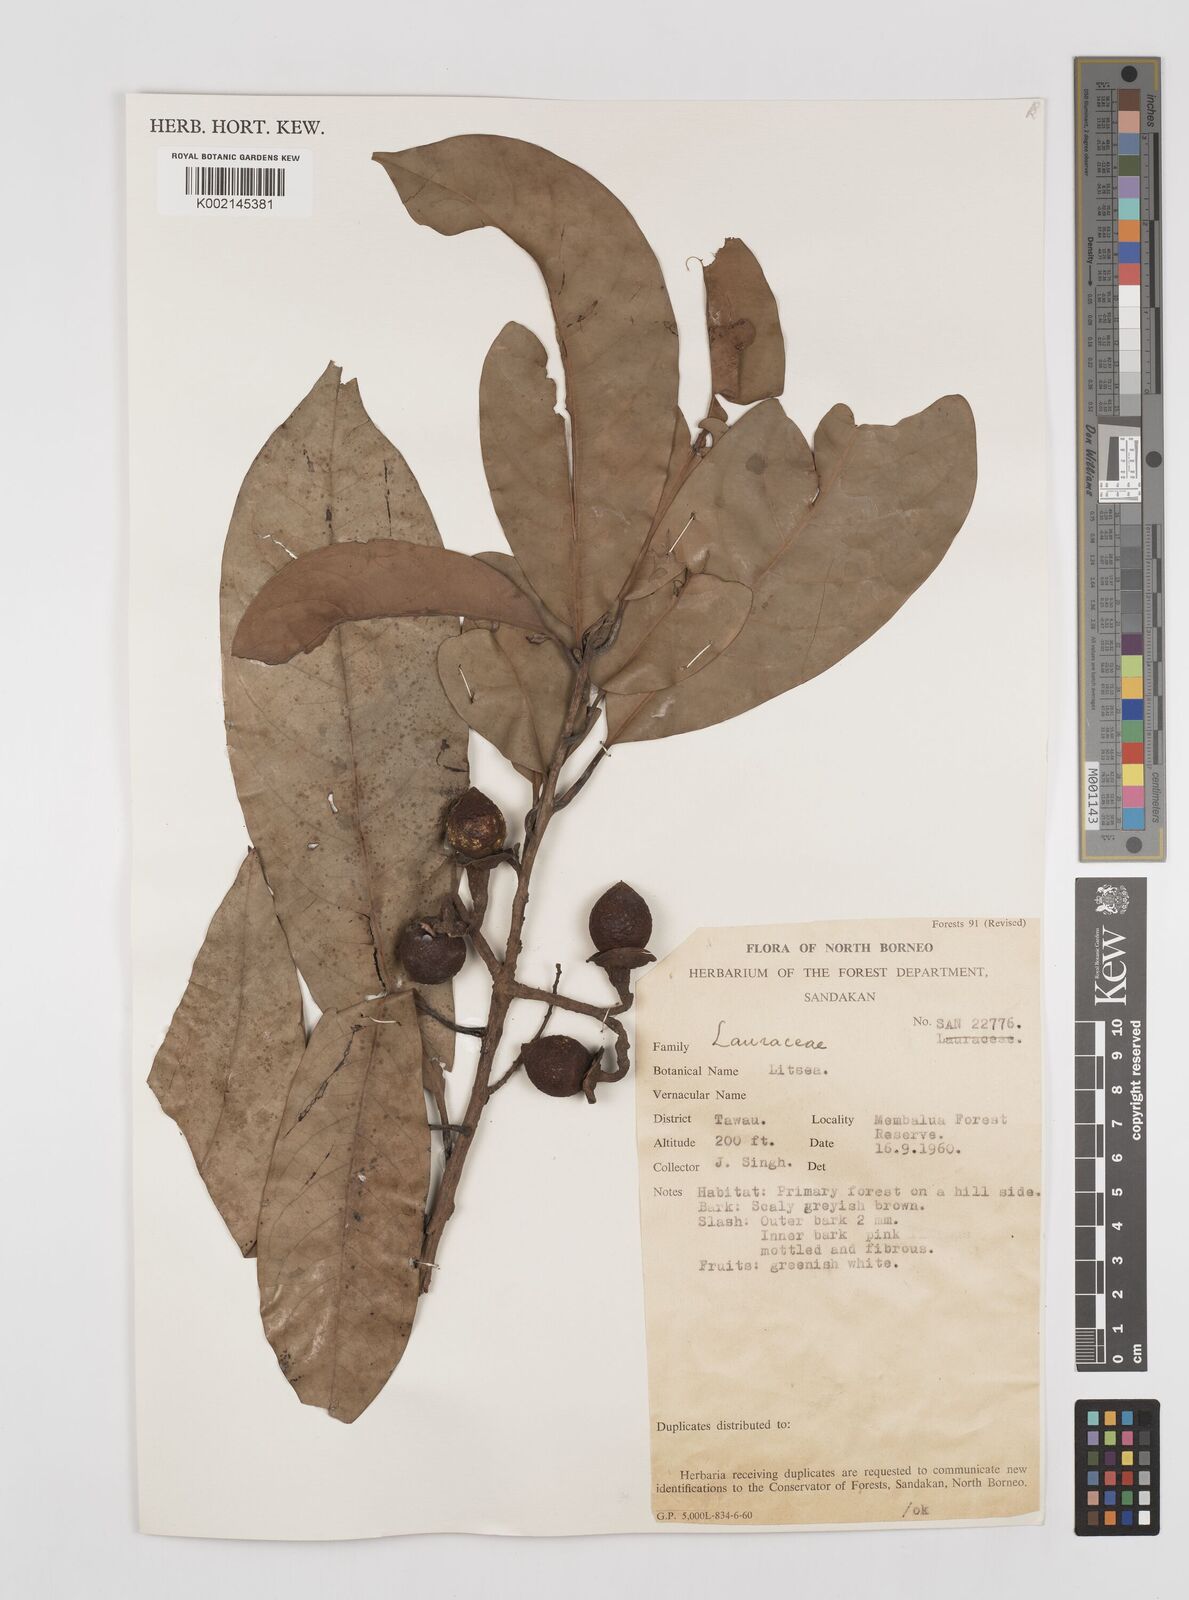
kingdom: Plantae
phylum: Tracheophyta
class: Magnoliopsida
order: Laurales
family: Lauraceae
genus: Litsea
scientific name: Litsea
